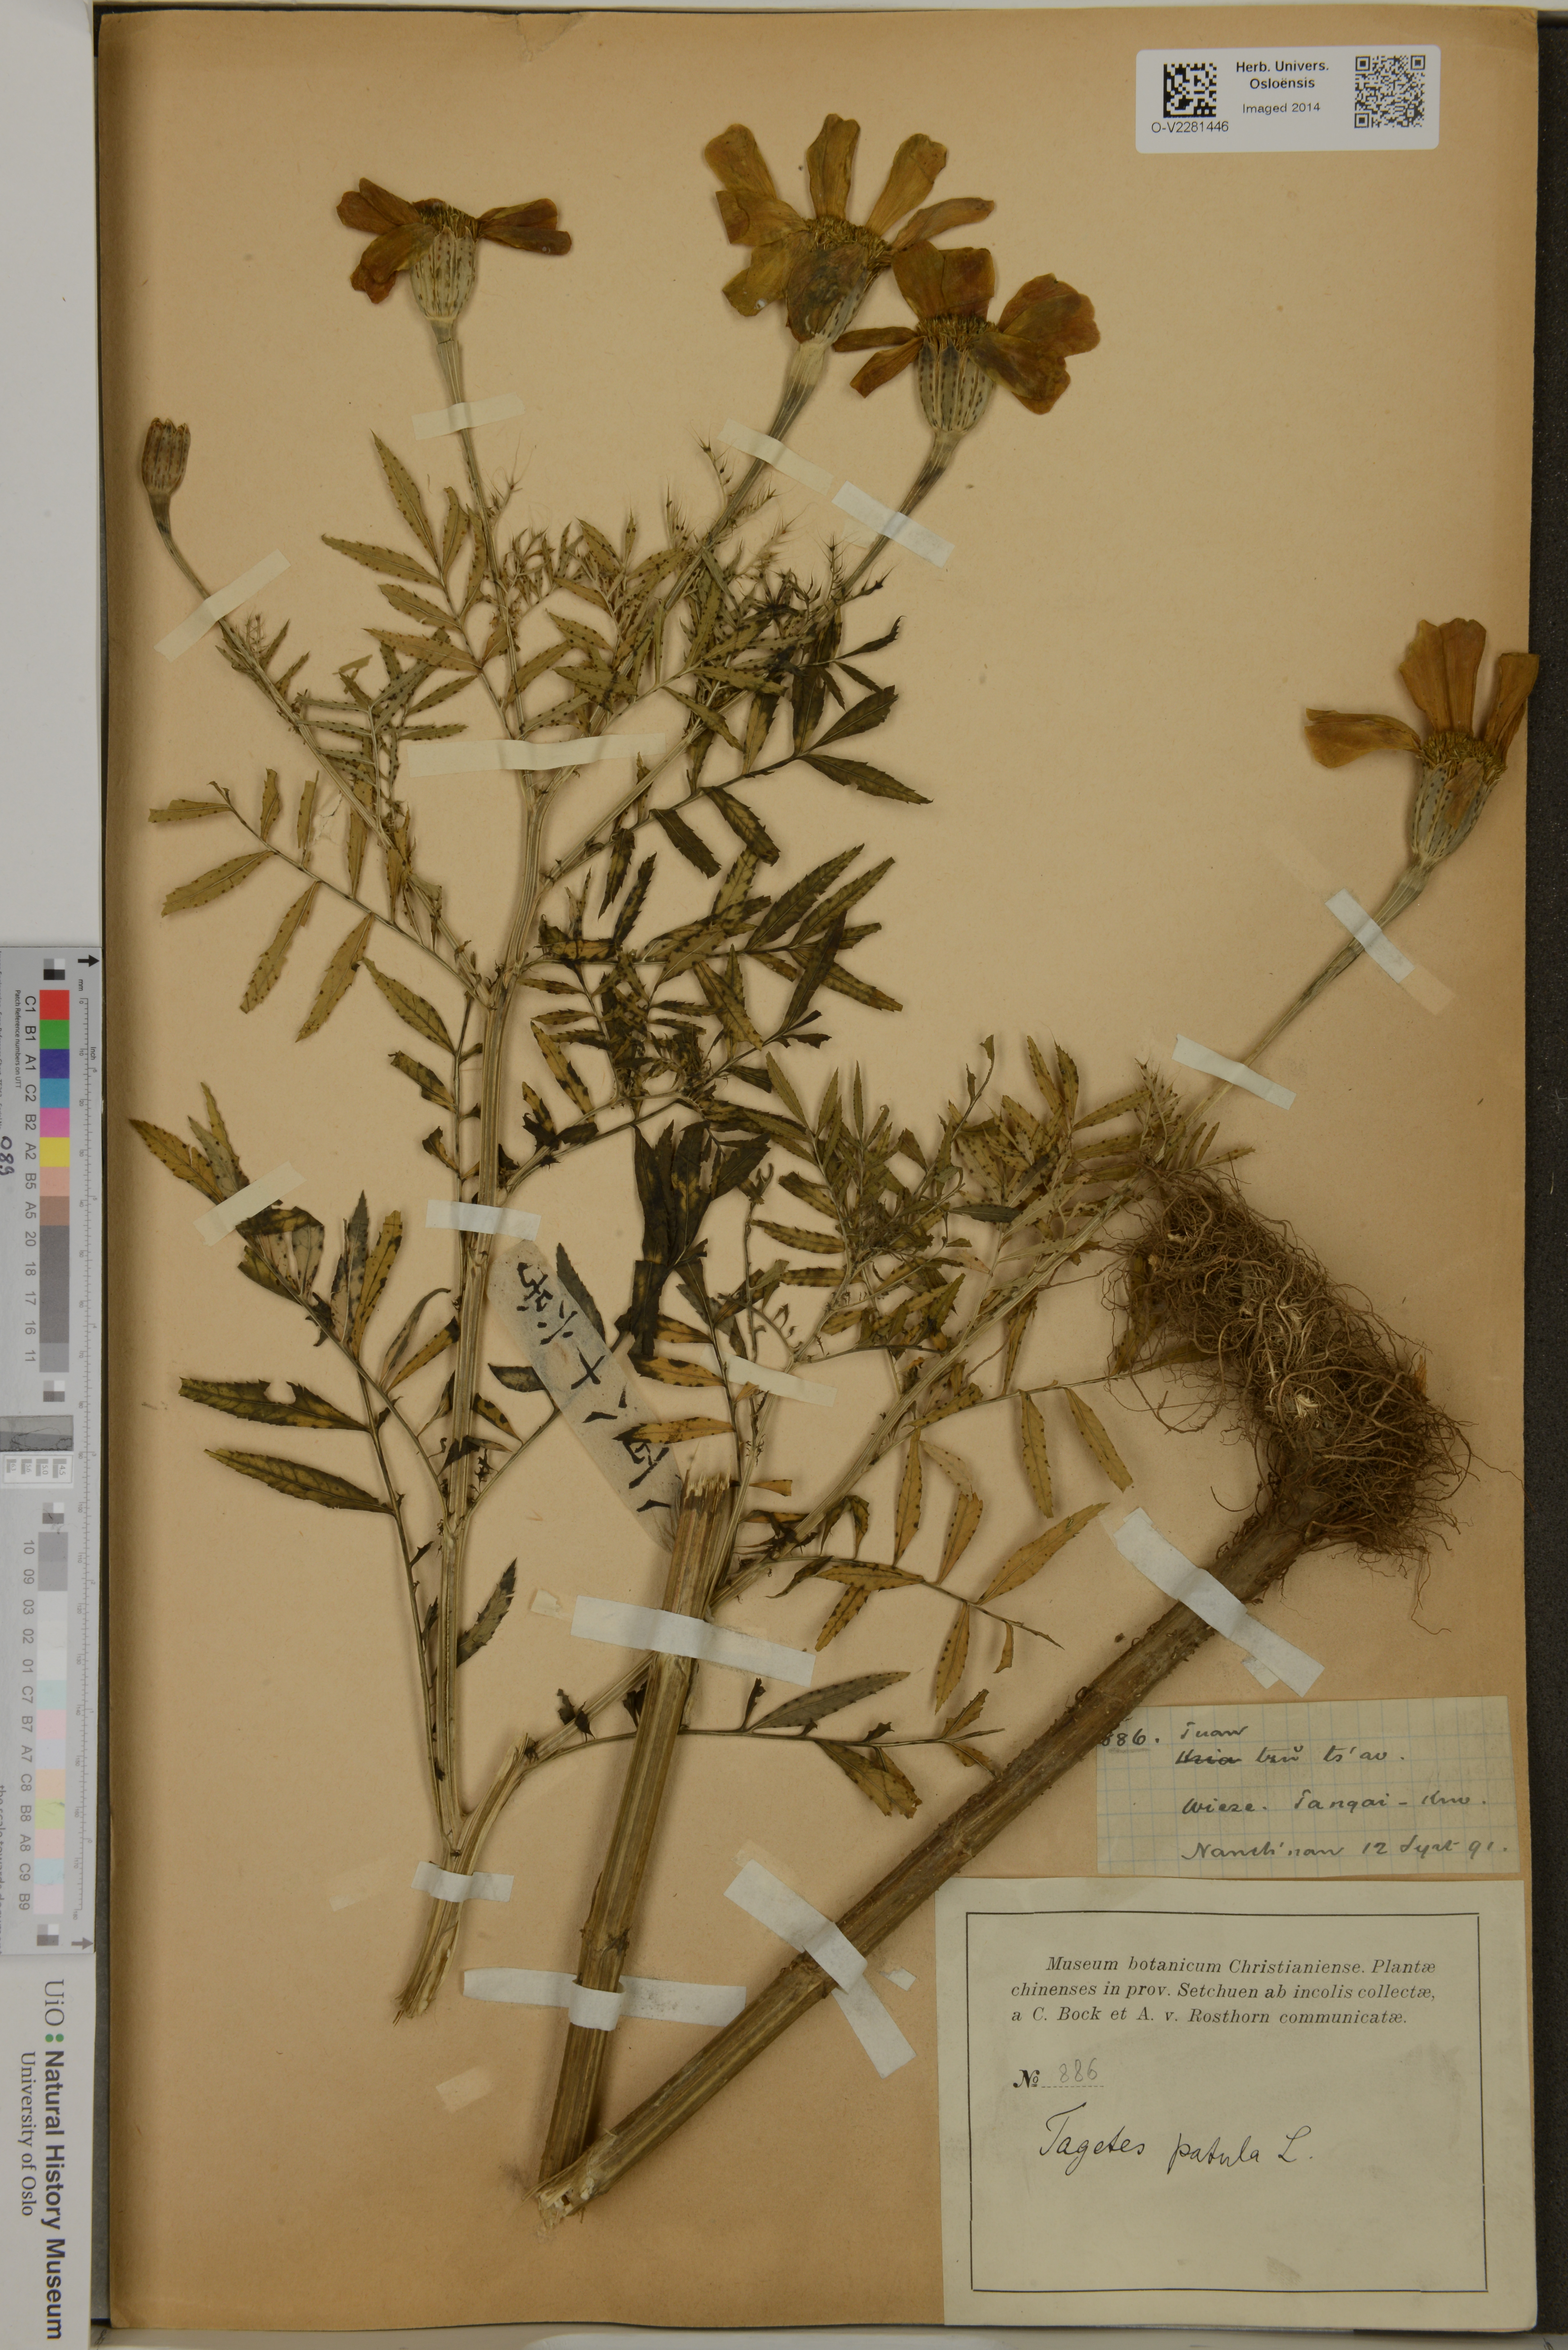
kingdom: Plantae
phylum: Tracheophyta
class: Magnoliopsida
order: Asterales
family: Asteraceae
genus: Tagetes
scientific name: Tagetes erecta
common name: African marigold
